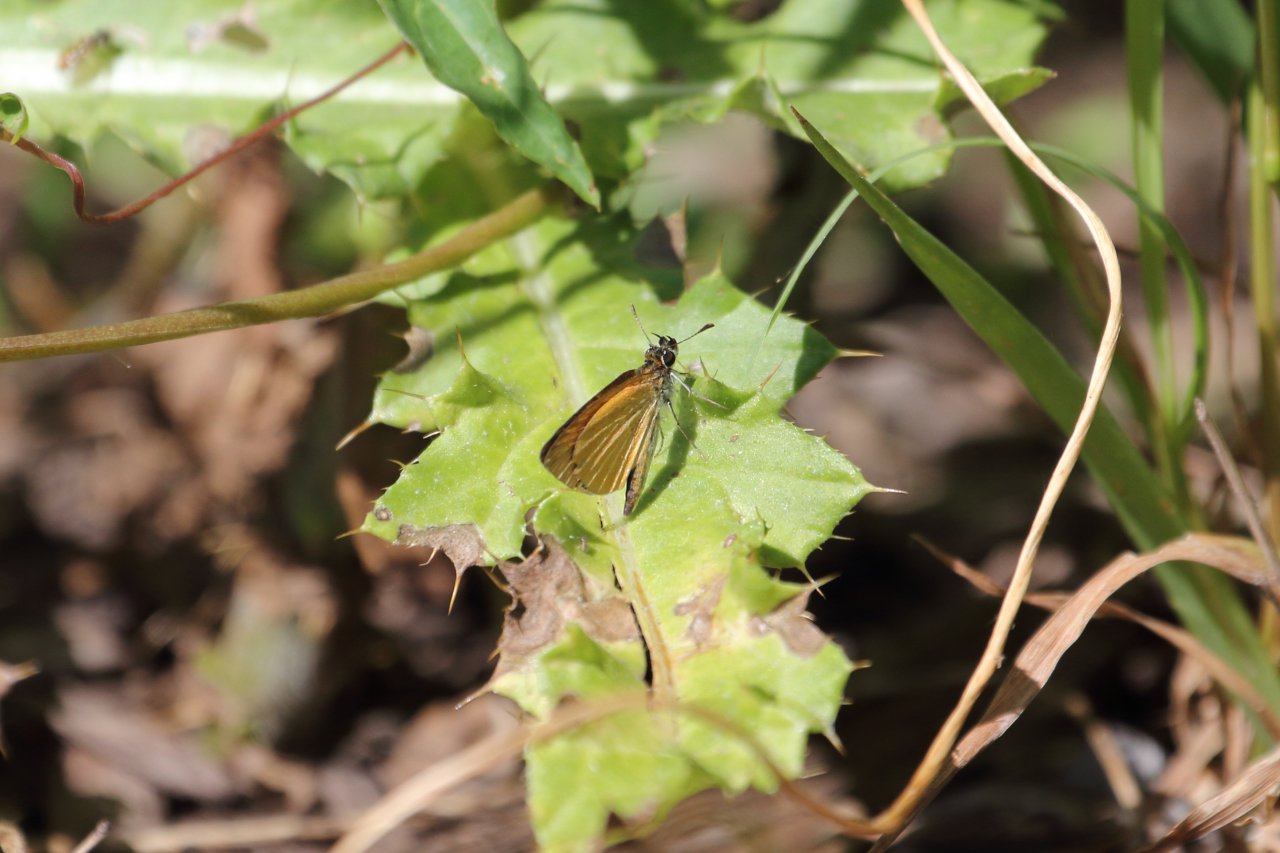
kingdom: Animalia
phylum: Arthropoda
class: Insecta
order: Lepidoptera
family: Hesperiidae
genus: Ancyloxypha
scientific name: Ancyloxypha numitor
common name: Least Skipper
